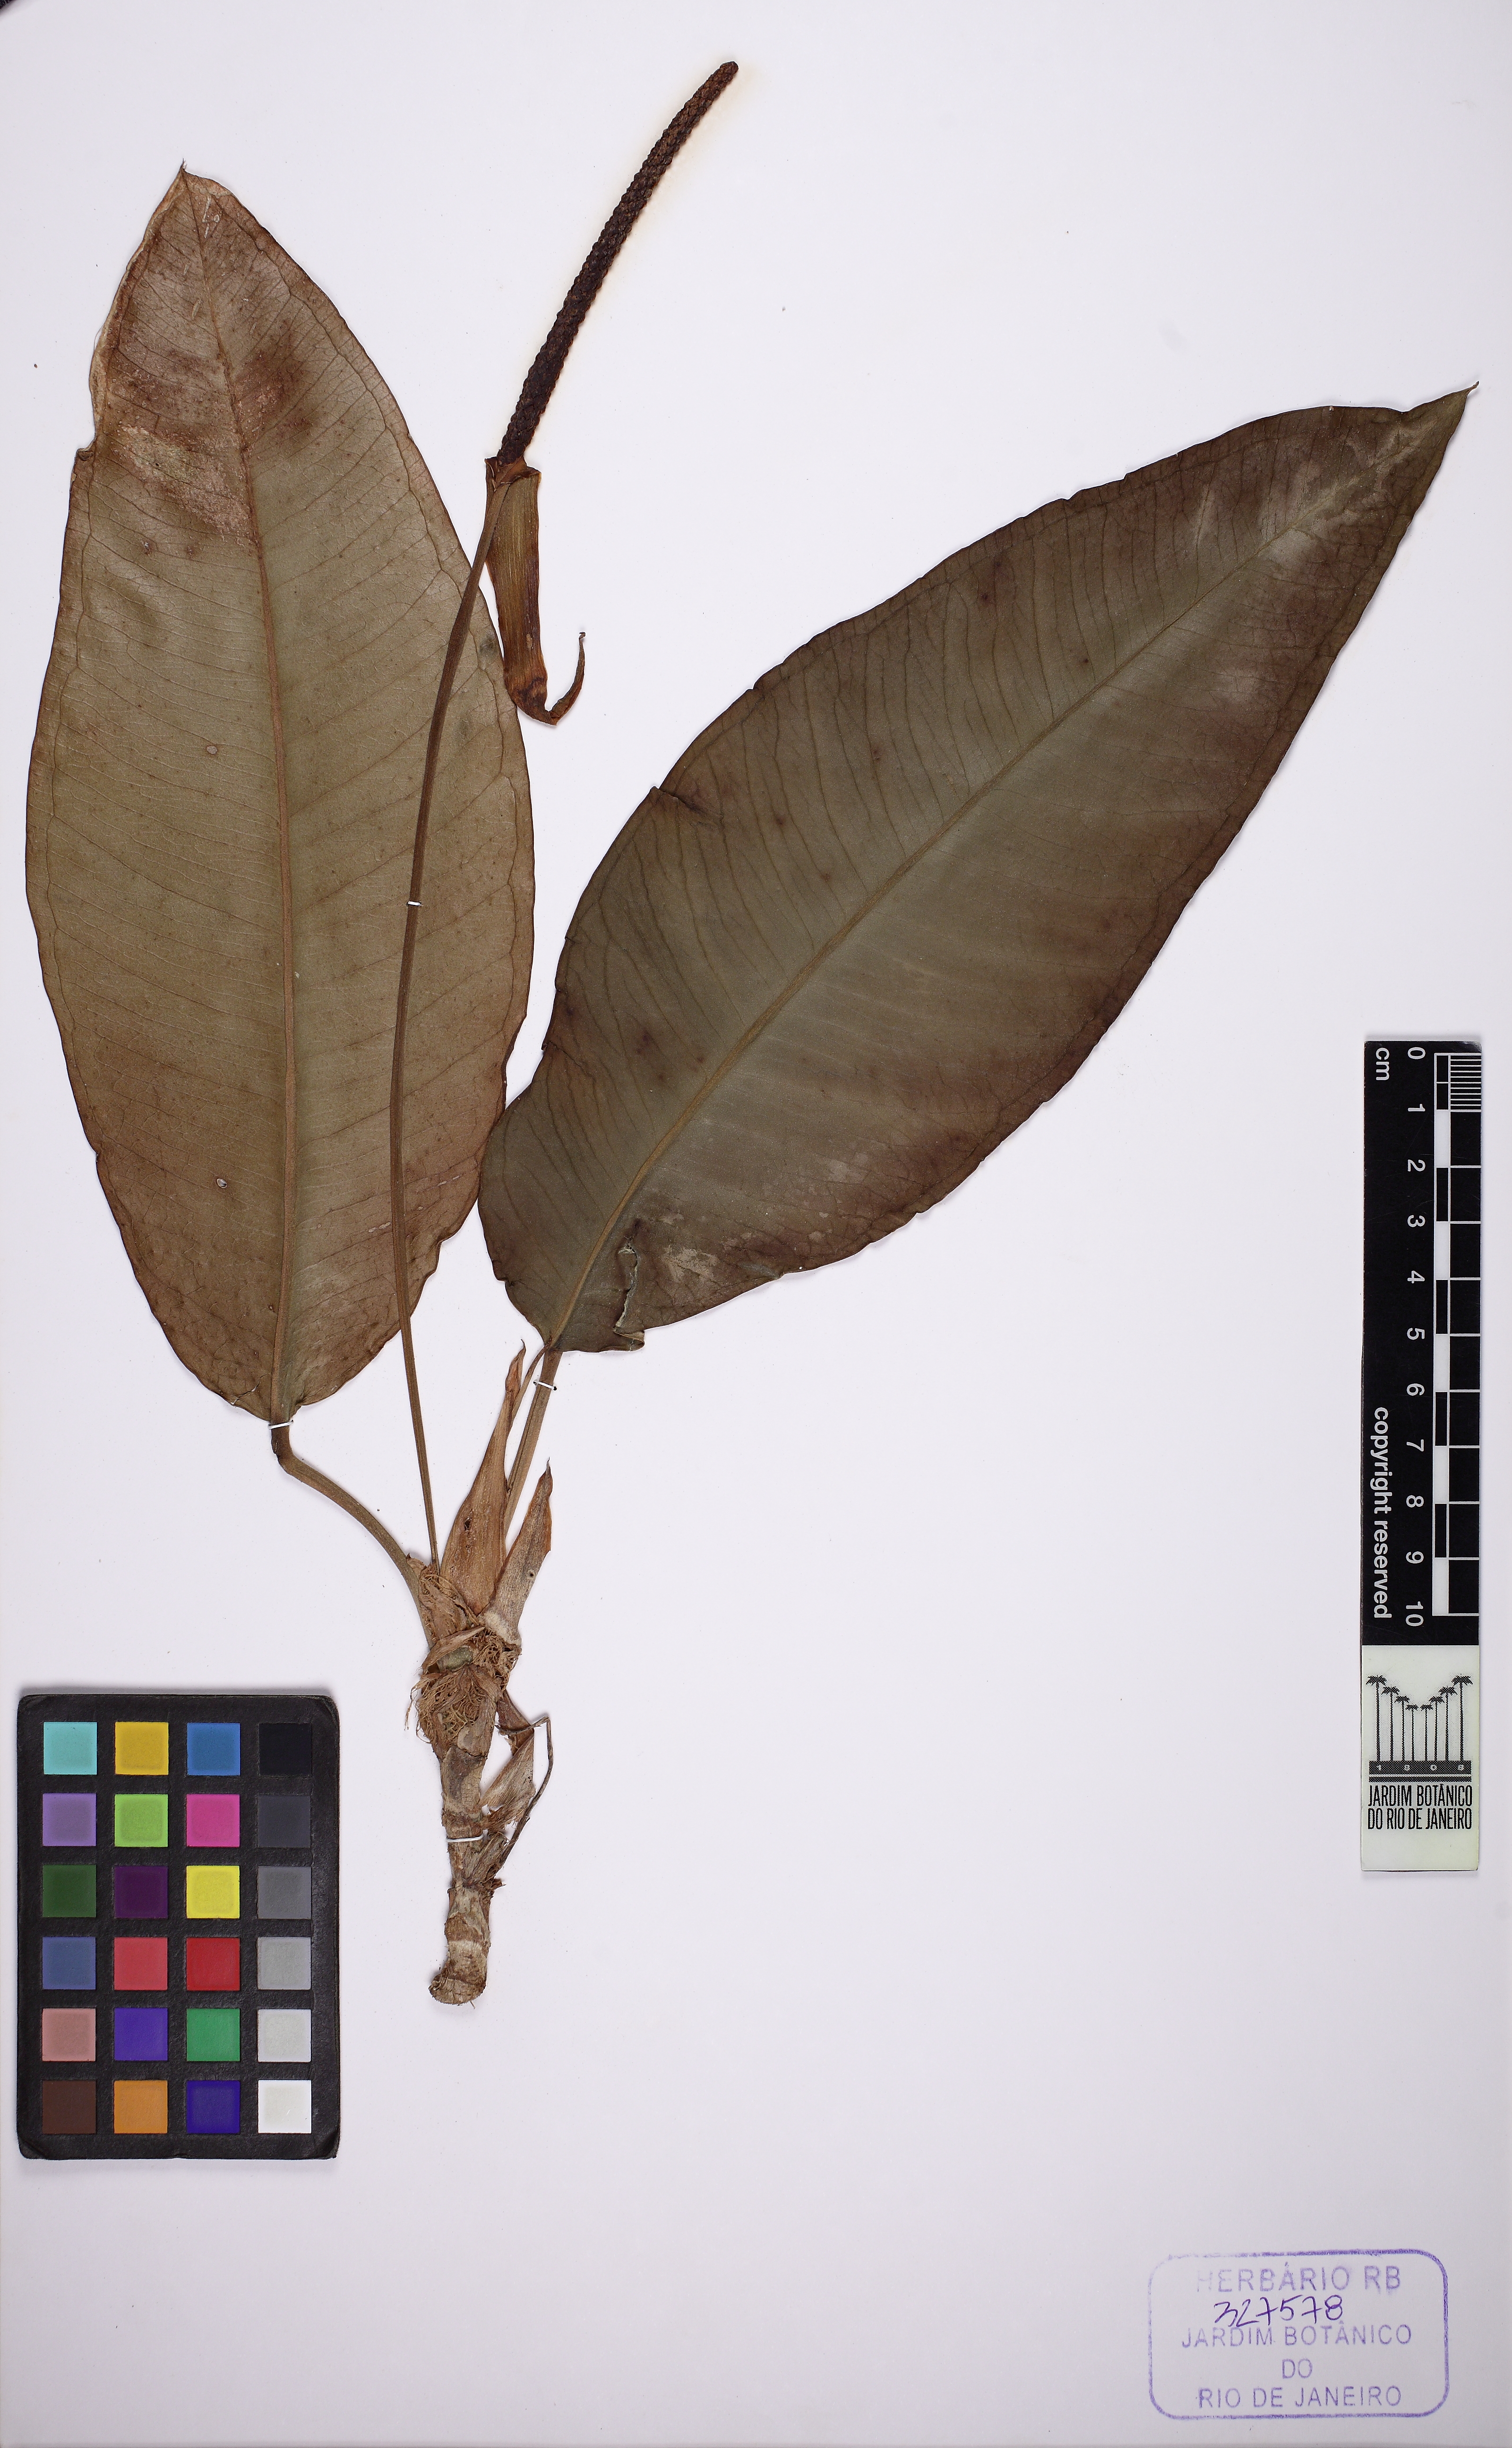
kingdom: Plantae
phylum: Tracheophyta
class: Liliopsida
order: Alismatales
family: Araceae
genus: Anthurium
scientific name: Anthurium parasiticum
